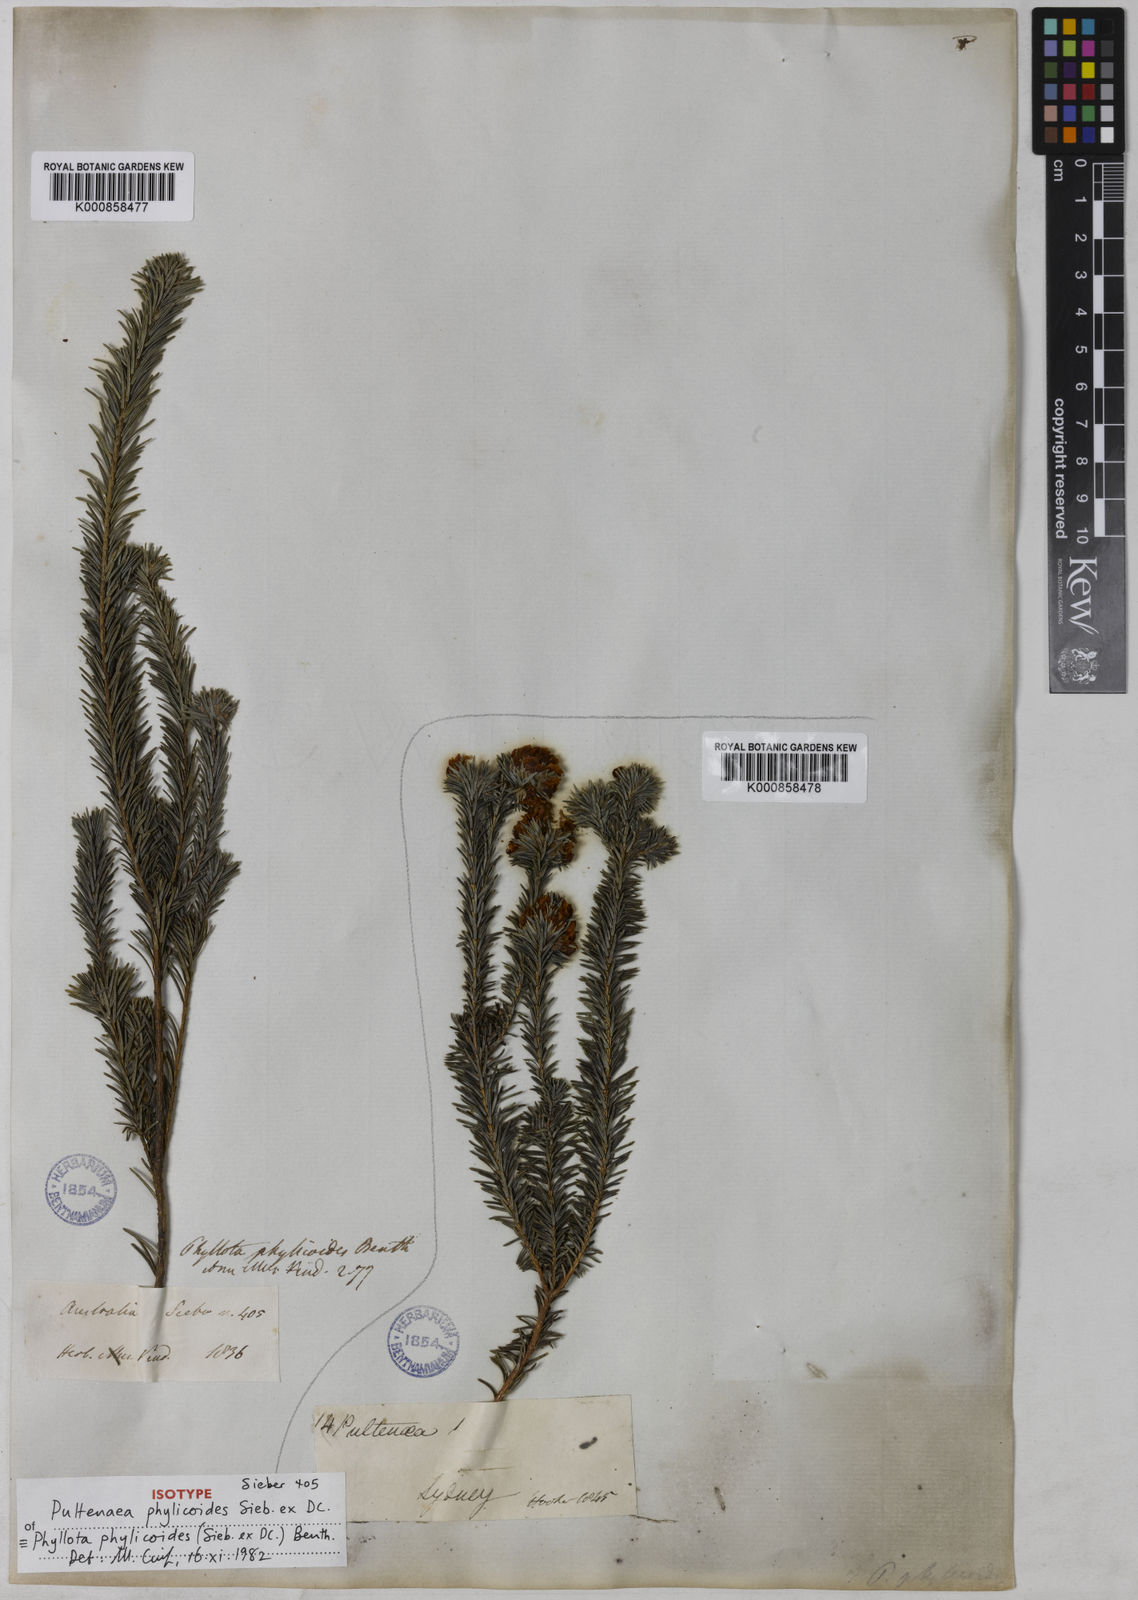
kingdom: Plantae
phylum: Tracheophyta
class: Magnoliopsida
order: Fabales
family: Fabaceae
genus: Phyllota
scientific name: Phyllota phylicoides
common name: Heath phyllota
